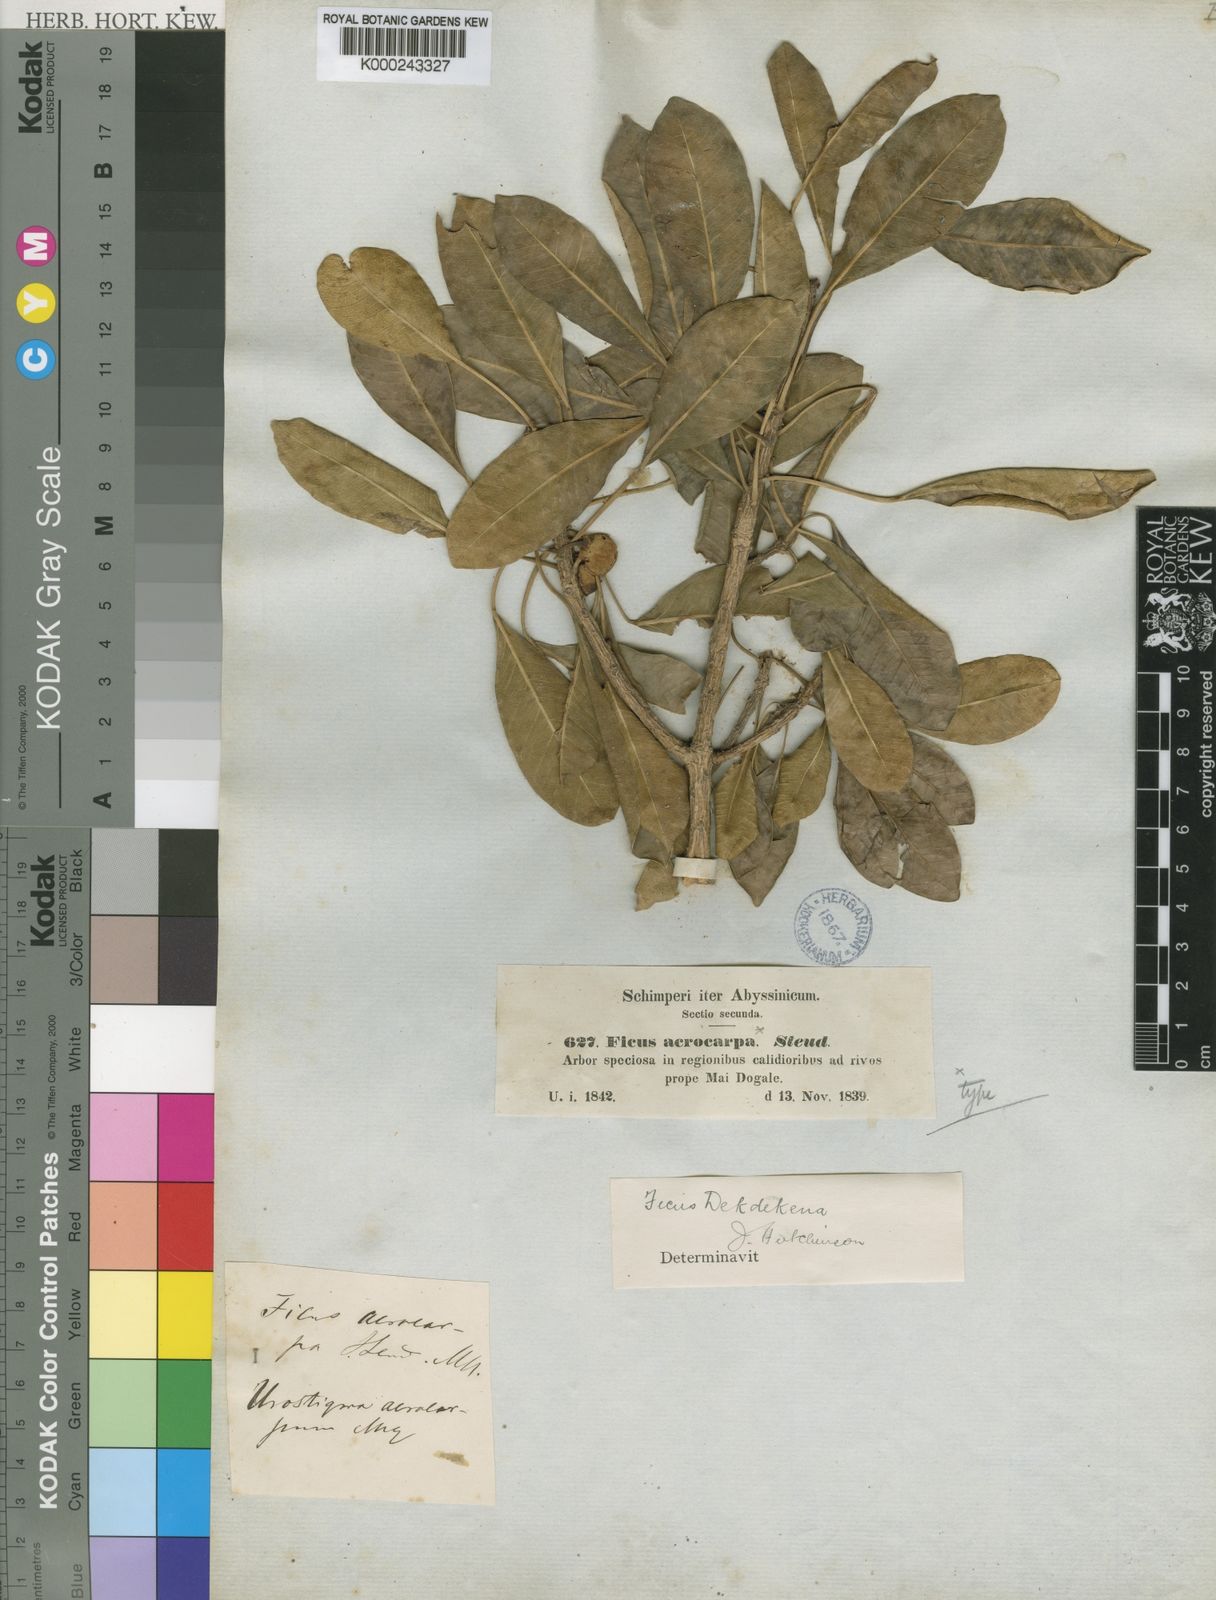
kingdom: Plantae
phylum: Tracheophyta
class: Magnoliopsida
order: Rosales
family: Moraceae
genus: Ficus
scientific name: Ficus thonningii
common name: Fig
